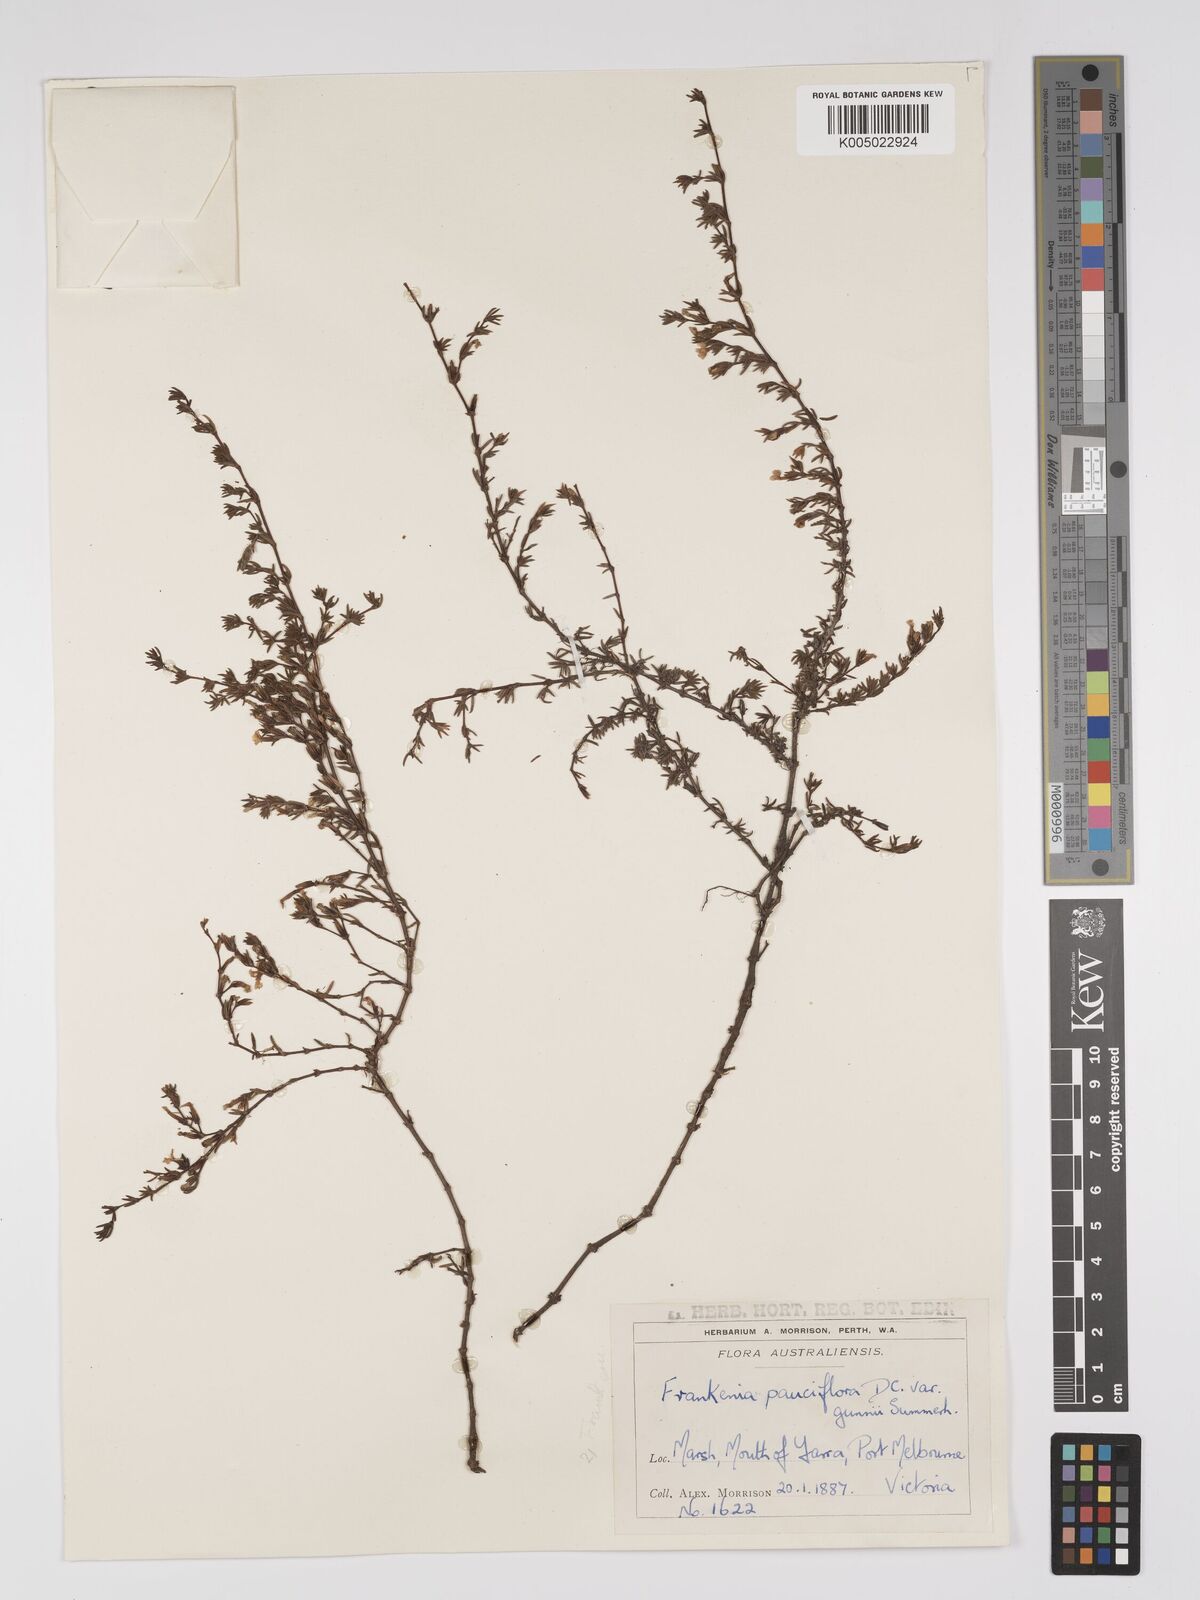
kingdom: Plantae
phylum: Tracheophyta
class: Magnoliopsida
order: Caryophyllales
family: Frankeniaceae
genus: Frankenia
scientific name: Frankenia pauciflora
